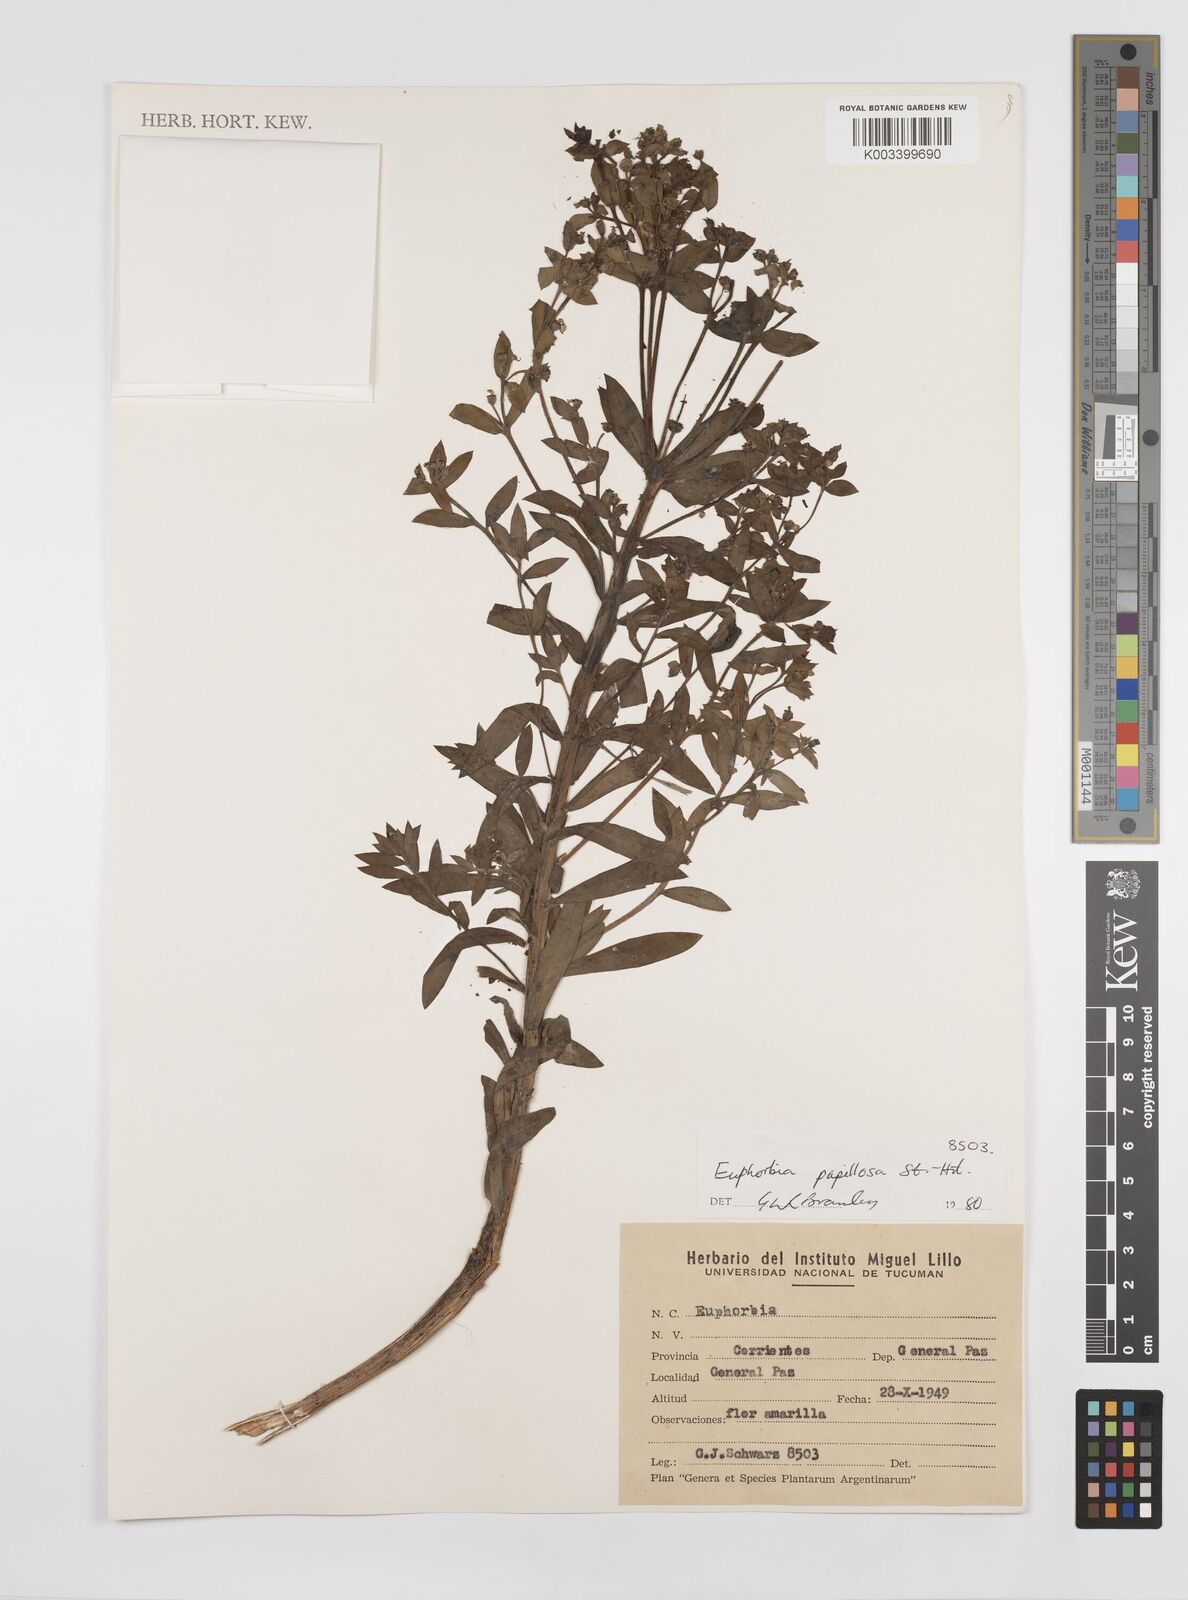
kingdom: Plantae
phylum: Tracheophyta
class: Magnoliopsida
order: Malpighiales
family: Euphorbiaceae
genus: Euphorbia
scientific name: Euphorbia
